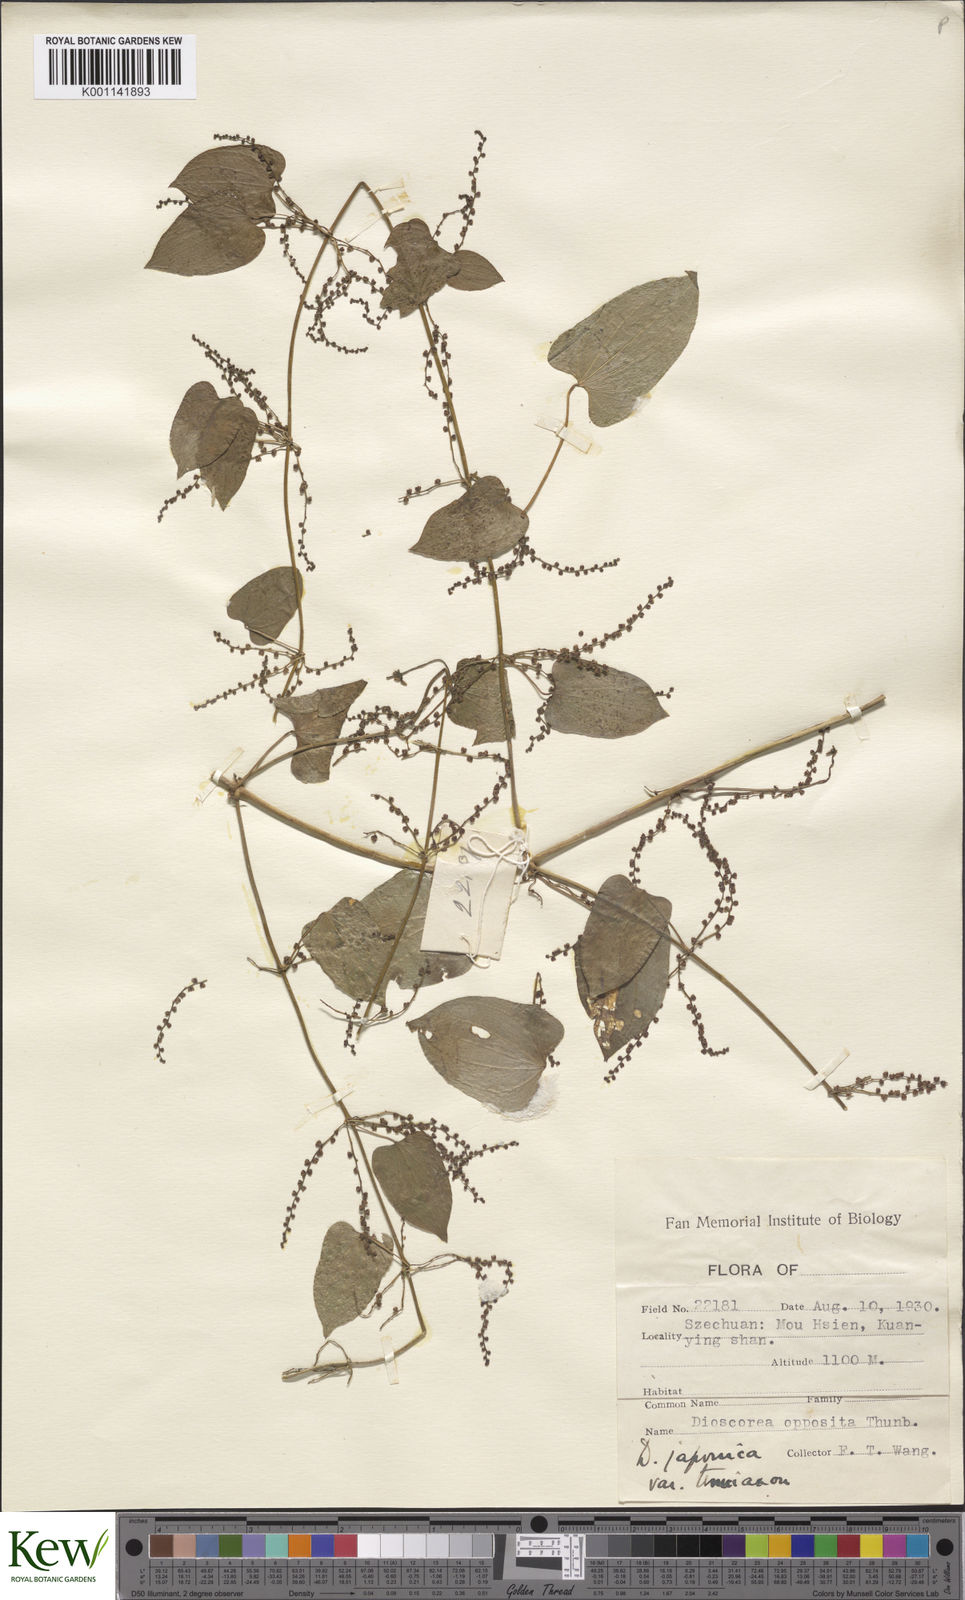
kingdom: Plantae
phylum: Tracheophyta
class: Liliopsida
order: Dioscoreales
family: Dioscoreaceae
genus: Dioscorea
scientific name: Dioscorea japonica
